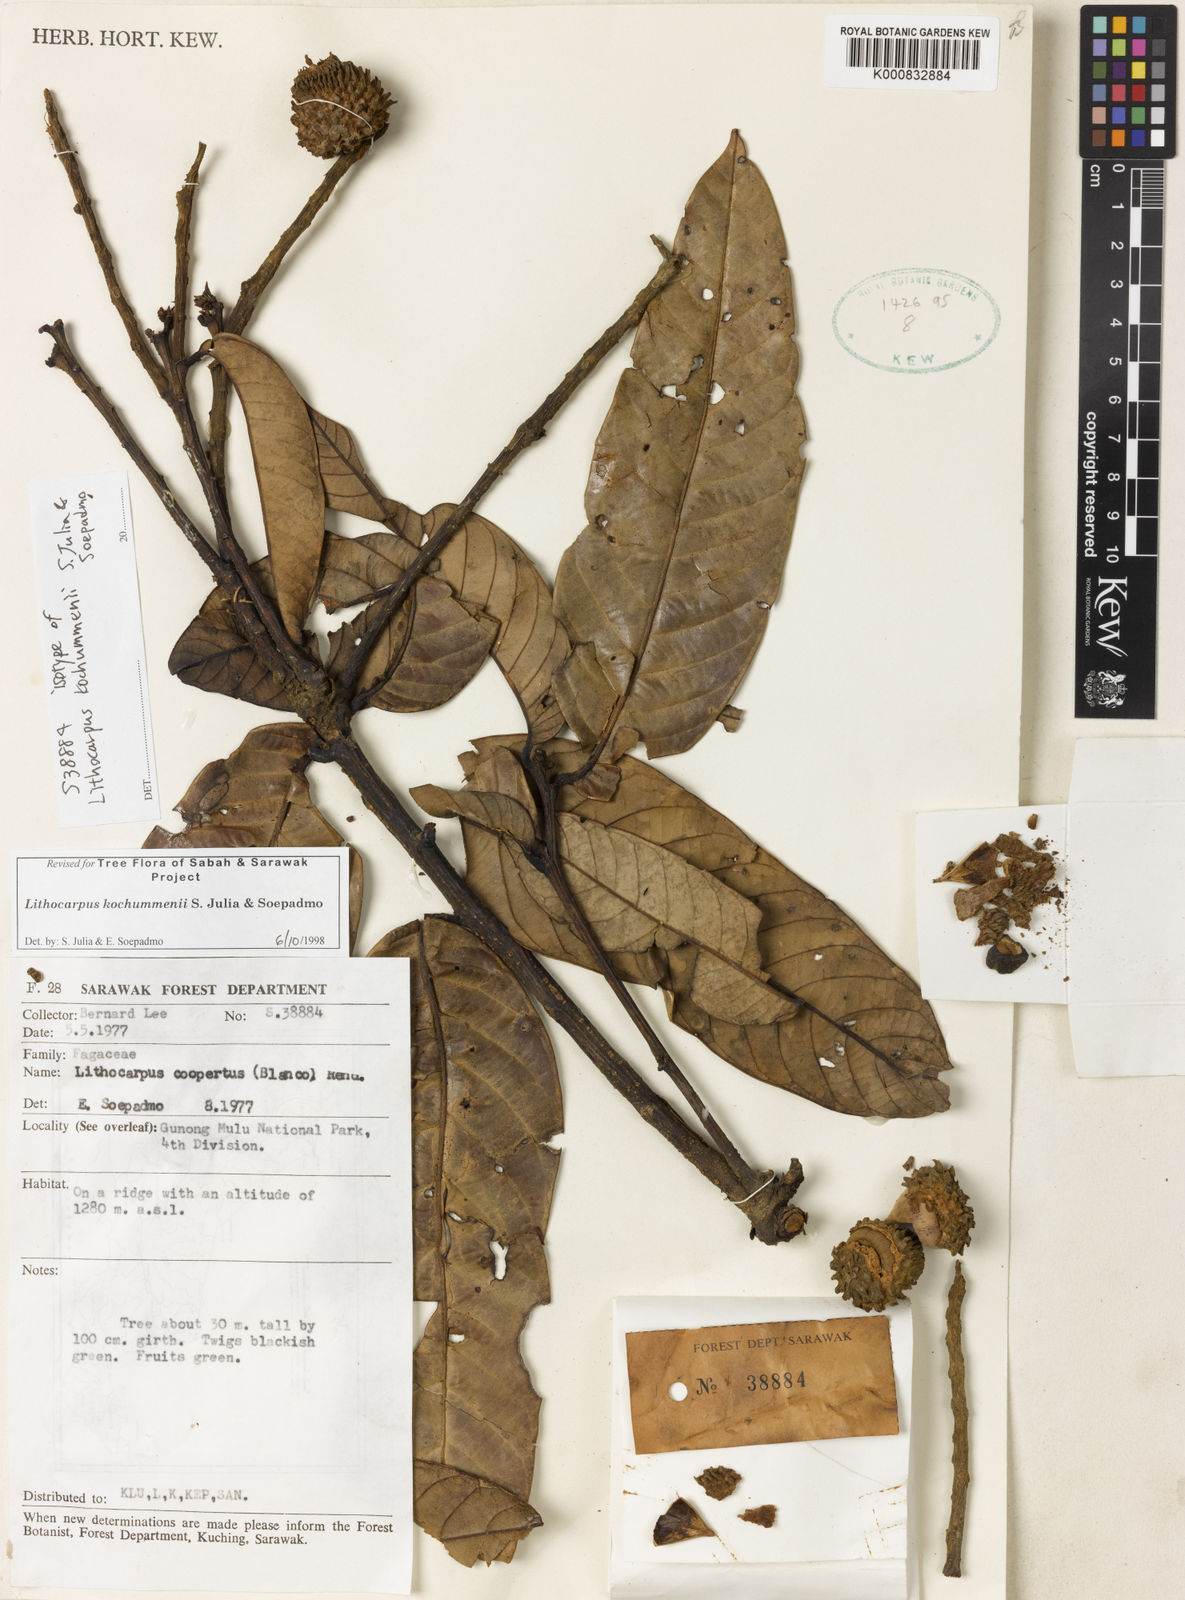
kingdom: Plantae
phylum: Tracheophyta
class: Magnoliopsida
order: Fagales
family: Fagaceae
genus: Lithocarpus
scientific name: Lithocarpus coopertus
